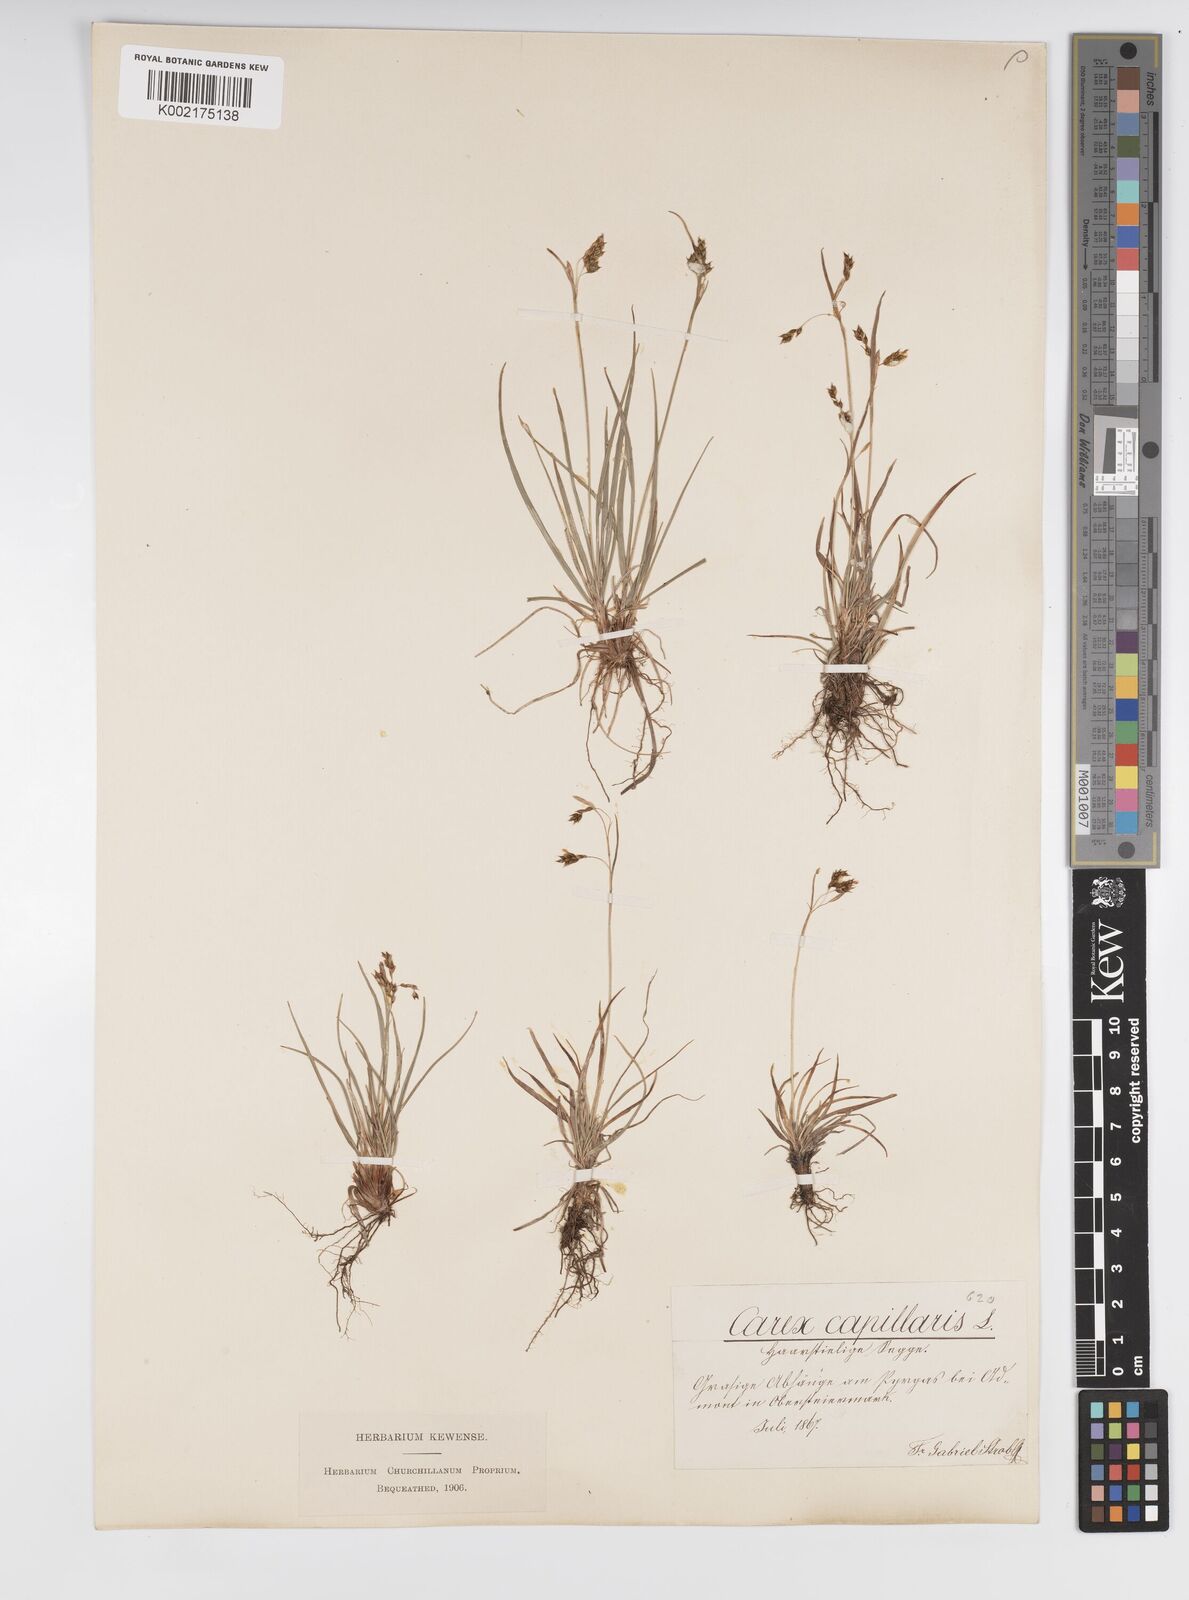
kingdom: Plantae
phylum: Tracheophyta
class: Liliopsida
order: Poales
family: Cyperaceae
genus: Carex
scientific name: Carex capillaris
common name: Hair sedge
